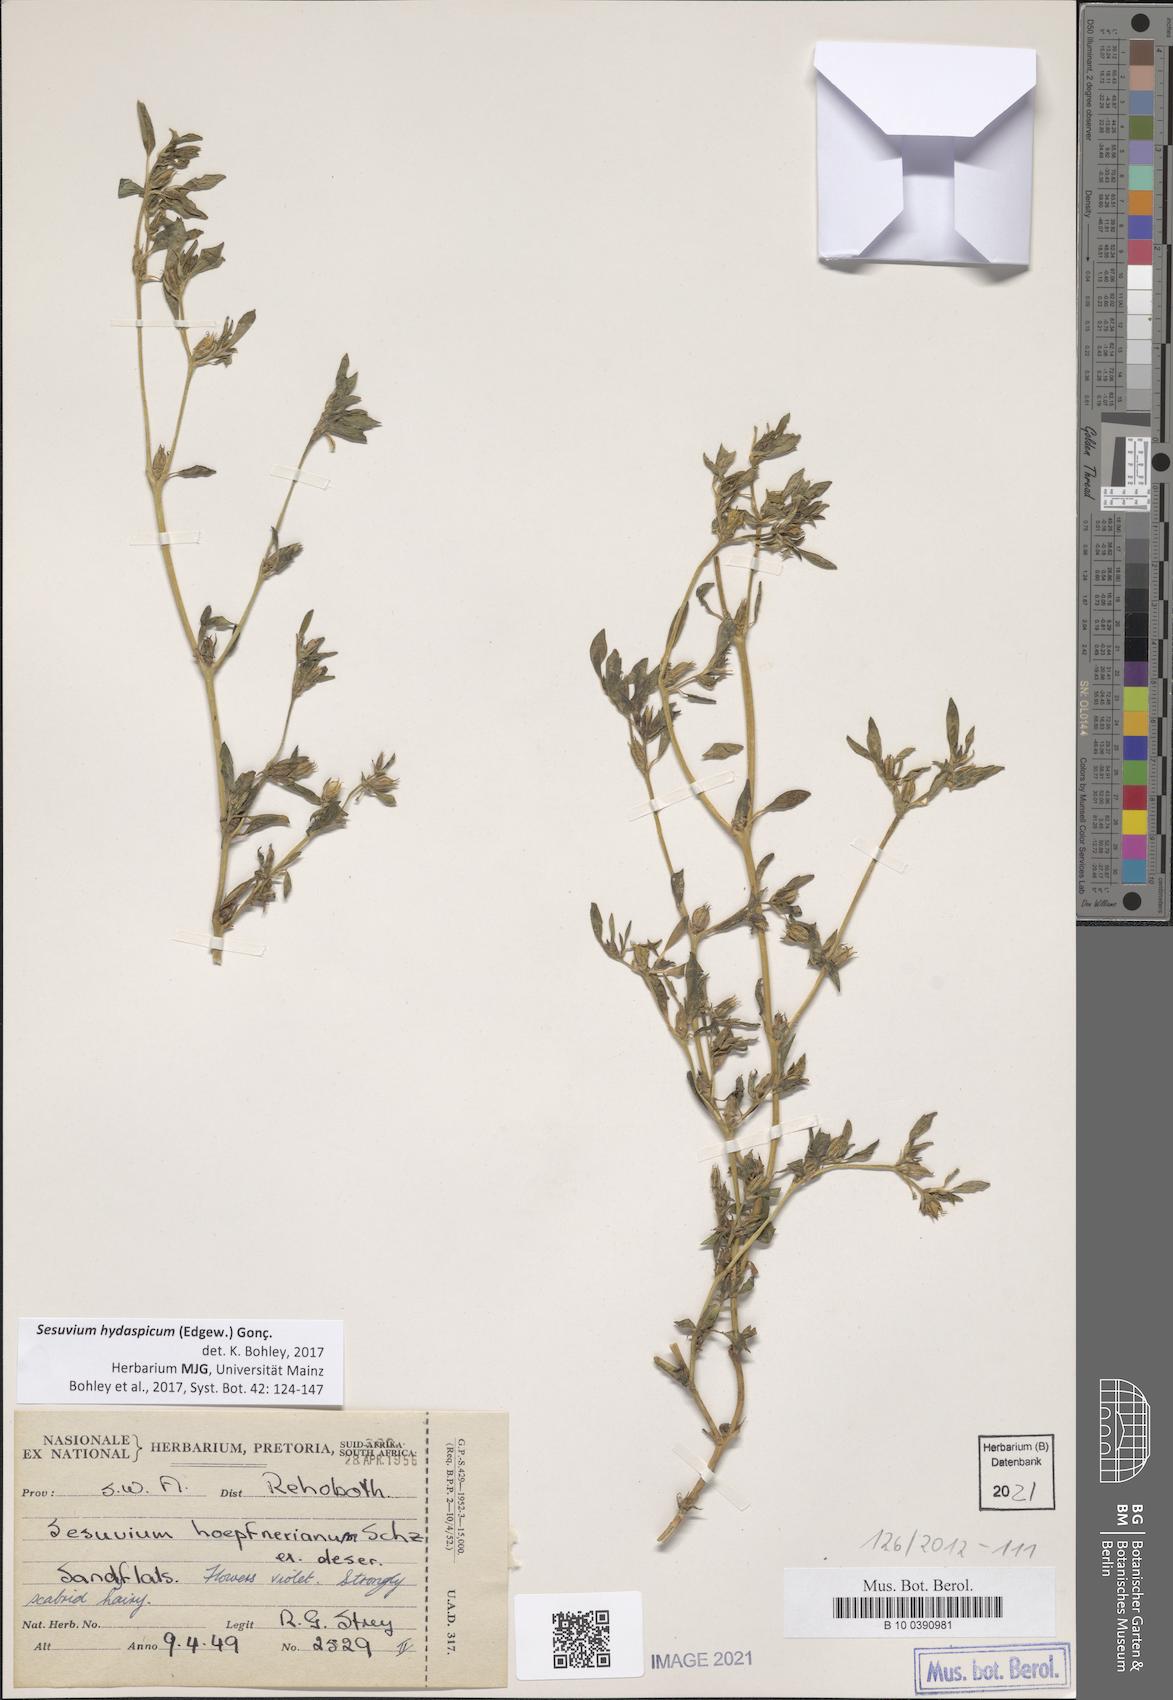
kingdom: Plantae
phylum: Tracheophyta
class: Magnoliopsida
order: Caryophyllales
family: Aizoaceae
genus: Sesuvium
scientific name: Sesuvium hydaspicum
